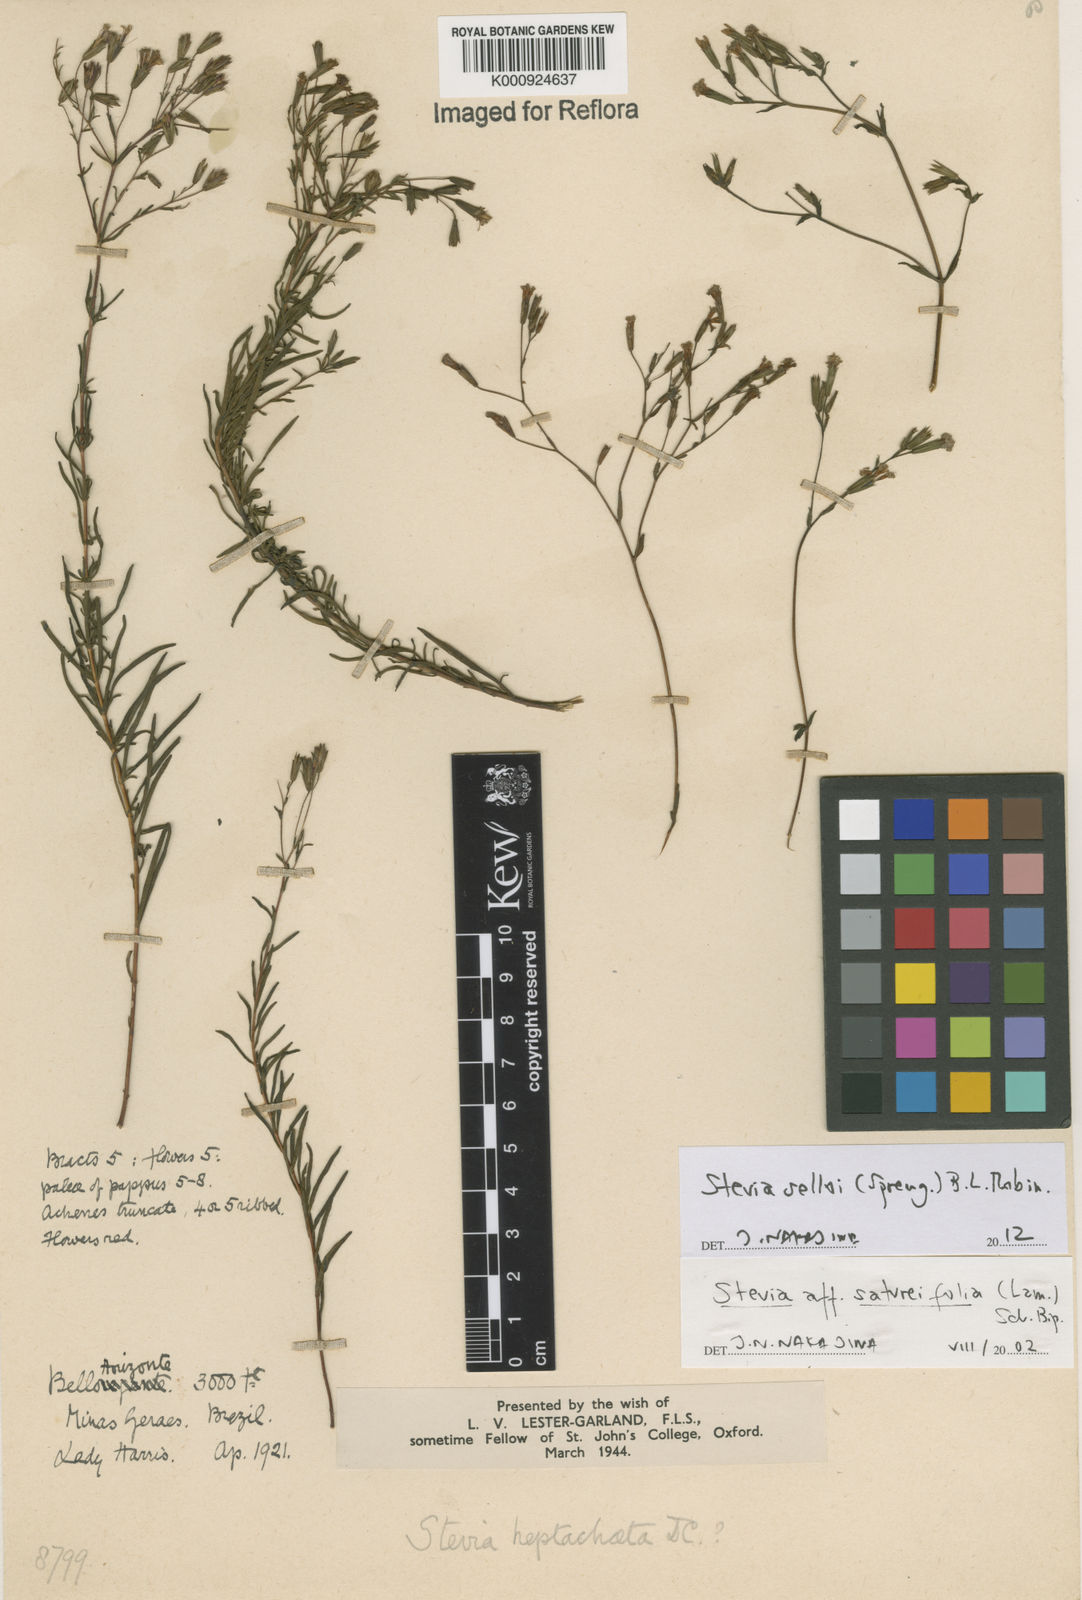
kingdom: Plantae
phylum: Tracheophyta
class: Magnoliopsida
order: Asterales
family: Asteraceae
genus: Stevia
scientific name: Stevia selloi
